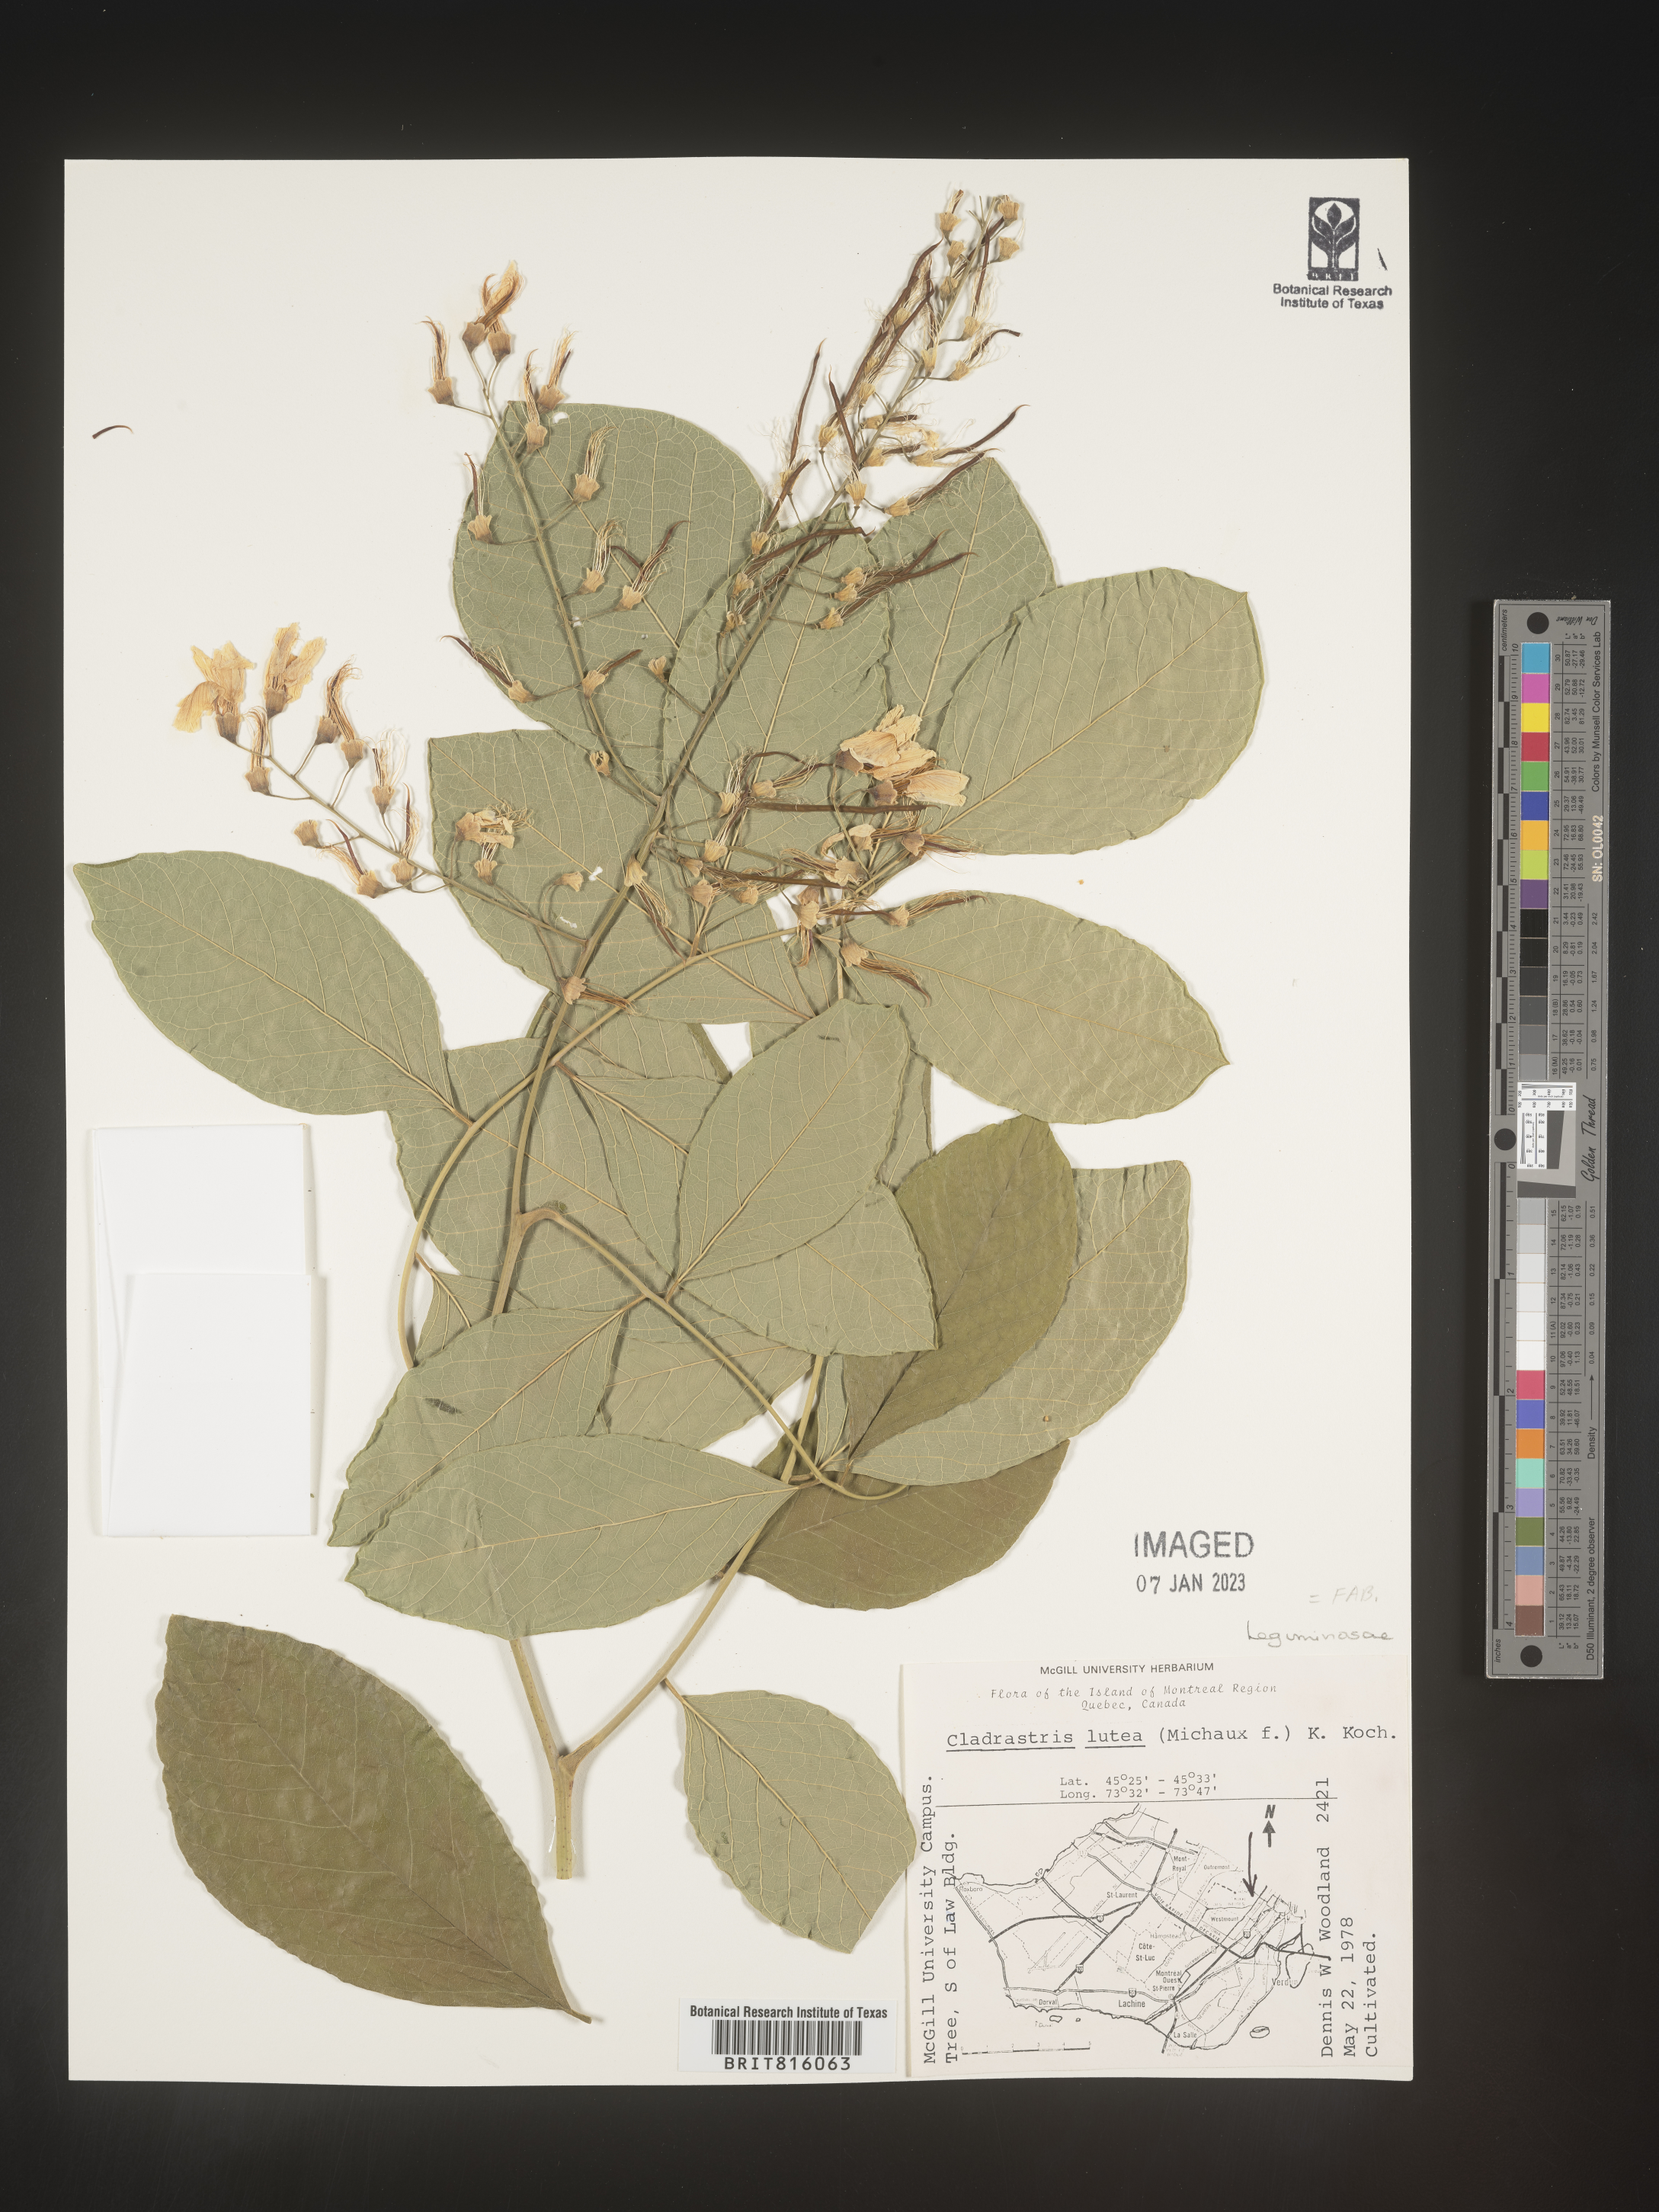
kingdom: Plantae
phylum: Tracheophyta
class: Magnoliopsida
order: Fabales
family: Fabaceae
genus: Cladrastis
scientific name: Cladrastis kentukea
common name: Kentucky yellow-wood
